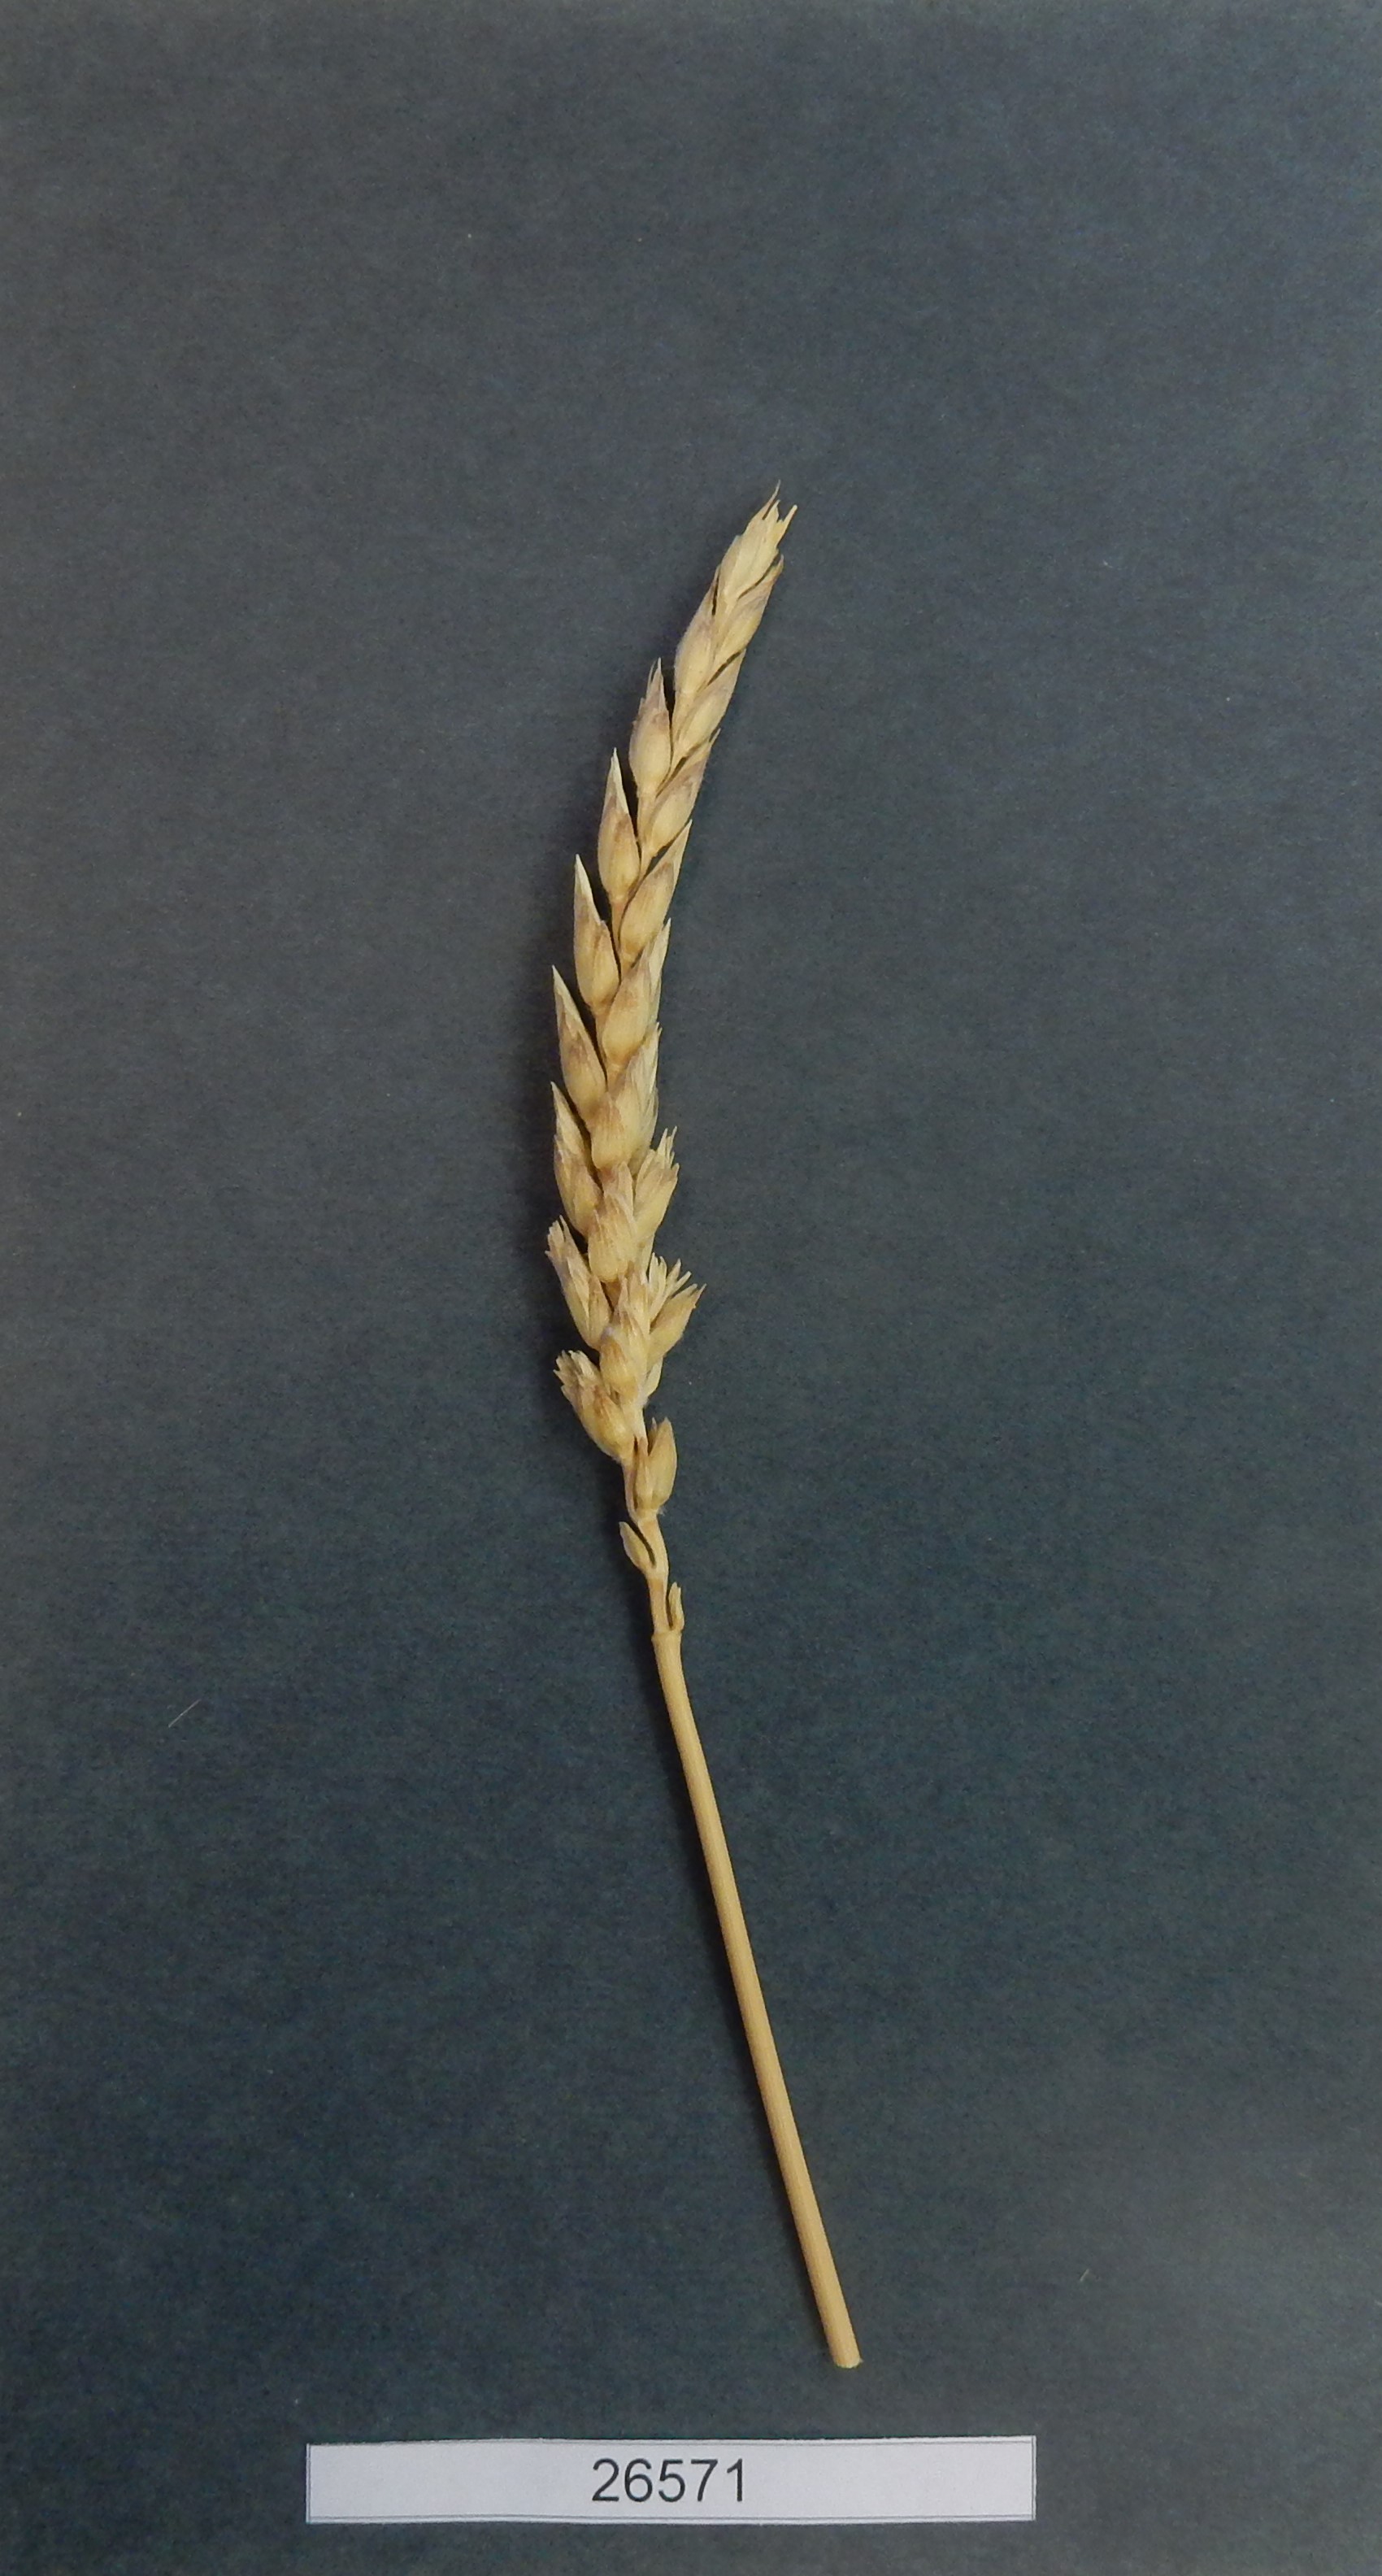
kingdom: Plantae
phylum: Tracheophyta
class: Liliopsida
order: Poales
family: Poaceae
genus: Triticum
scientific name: Triticum turgidum
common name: Wheat
